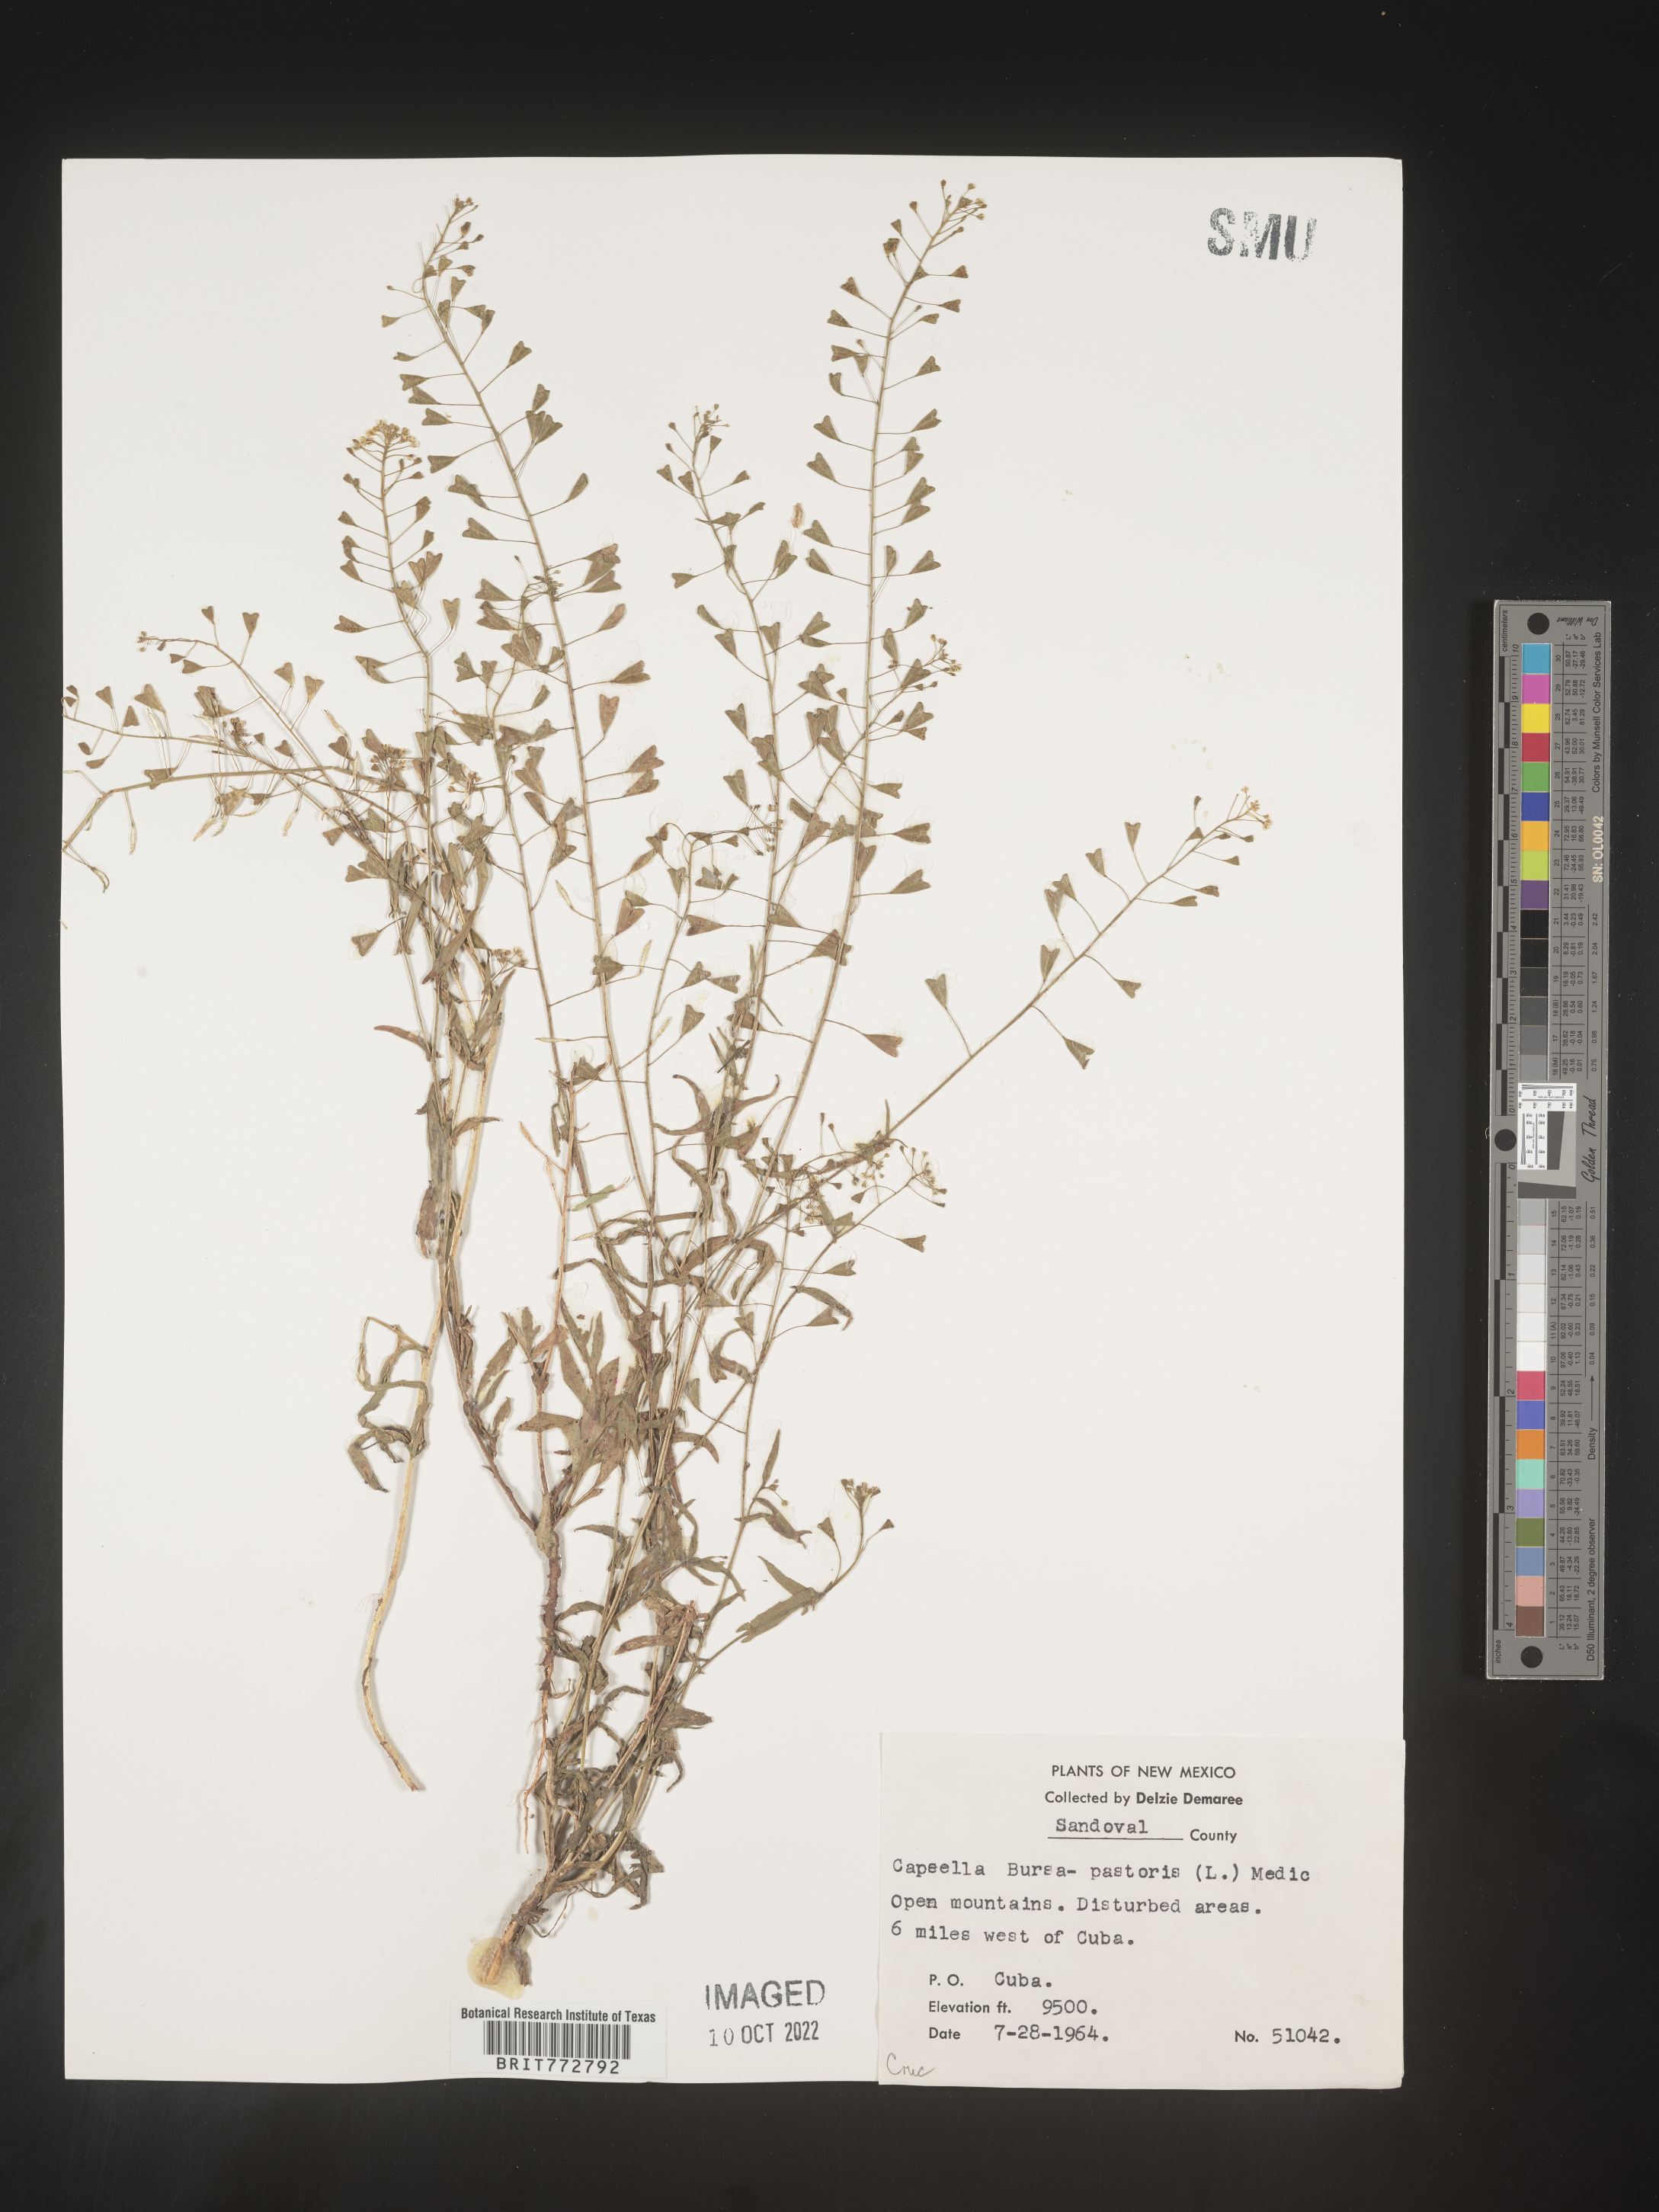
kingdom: Plantae
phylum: Tracheophyta
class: Magnoliopsida
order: Brassicales
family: Brassicaceae
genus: Capsella
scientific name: Capsella bursa-pastoris
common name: Shepherd's purse
